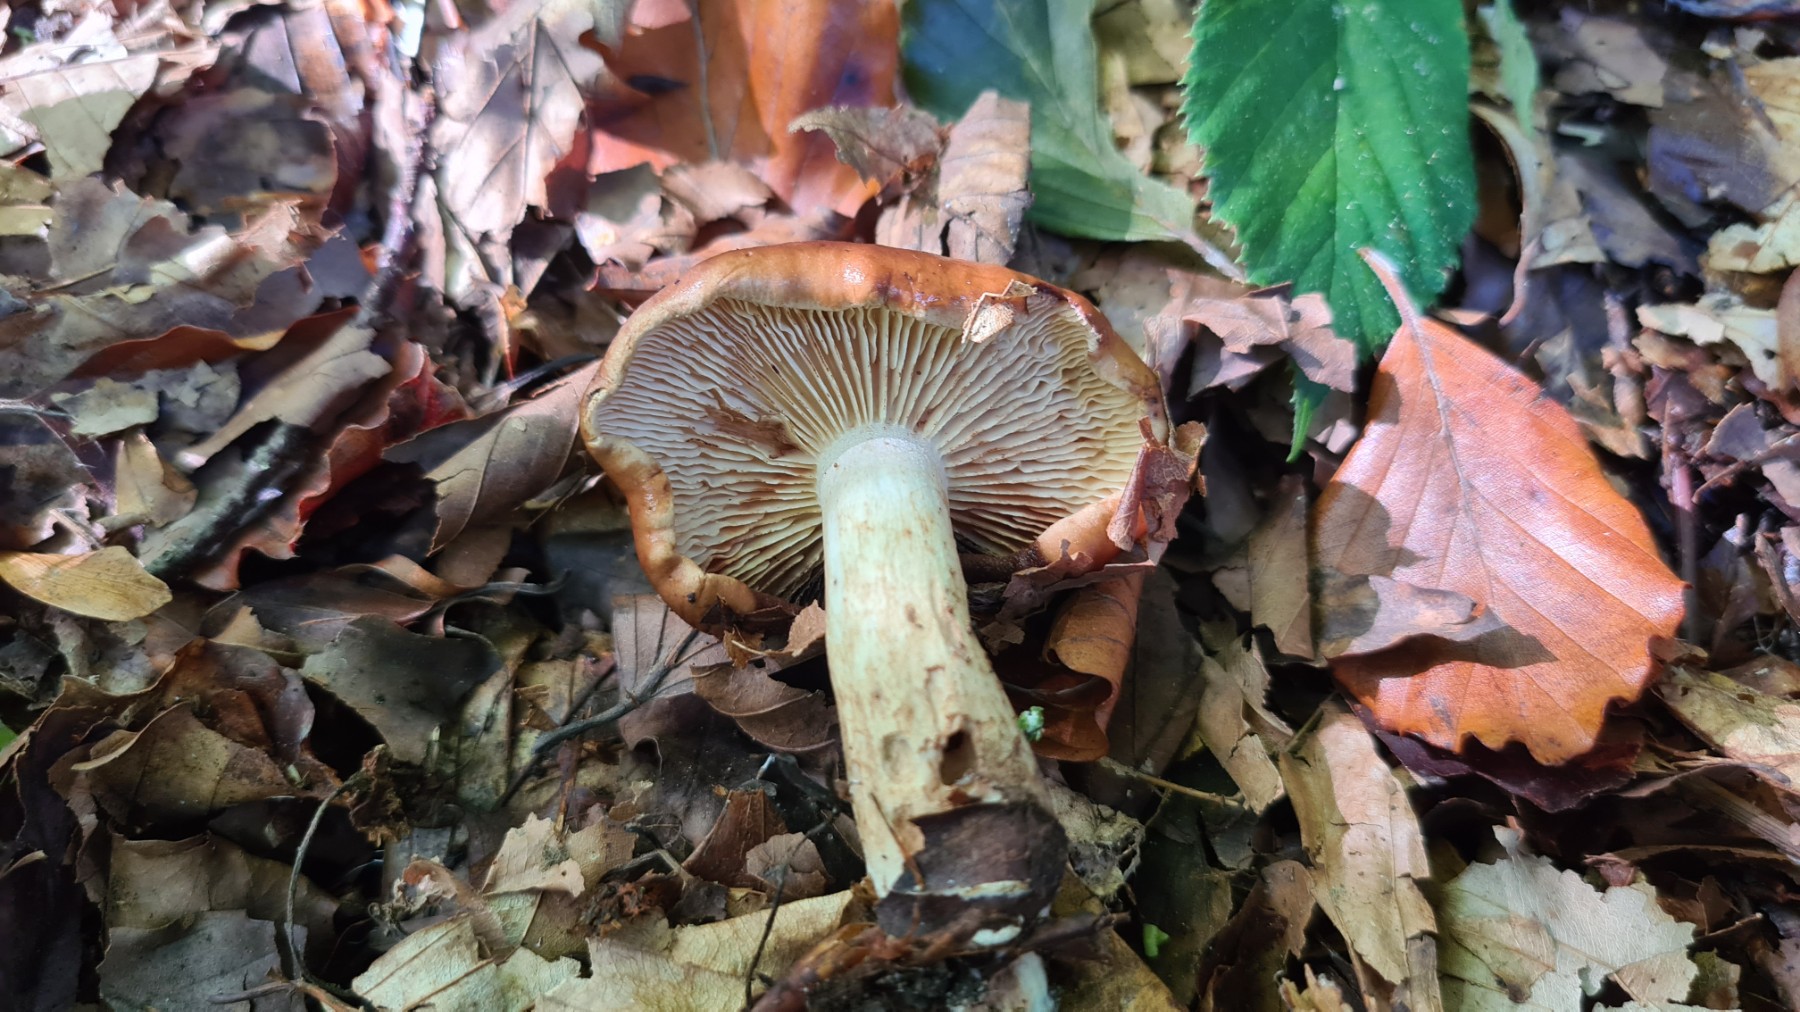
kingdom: Fungi
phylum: Basidiomycota
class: Agaricomycetes
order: Agaricales
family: Tricholomataceae
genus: Tricholoma
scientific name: Tricholoma ustale
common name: sveden ridderhat
